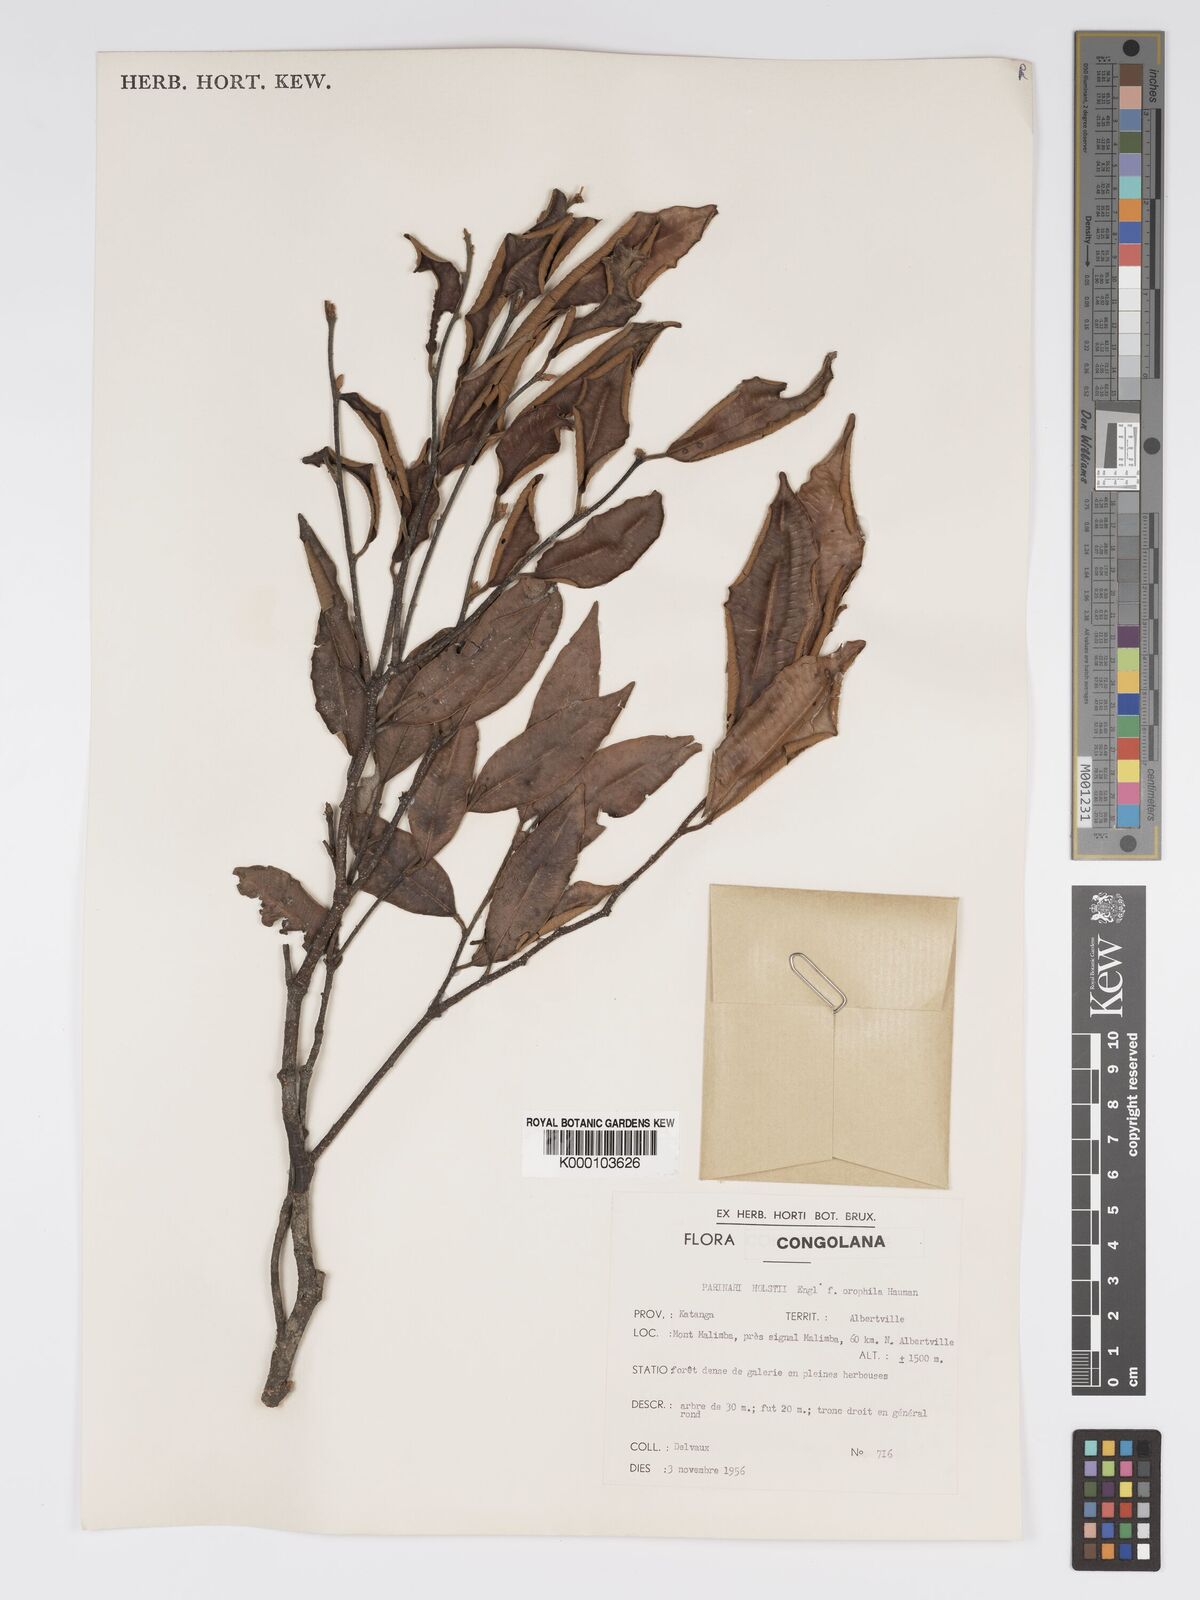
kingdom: Plantae
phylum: Tracheophyta
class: Magnoliopsida
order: Malpighiales
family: Chrysobalanaceae
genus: Parinari
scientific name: Parinari excelsa
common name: Guinea-plum
